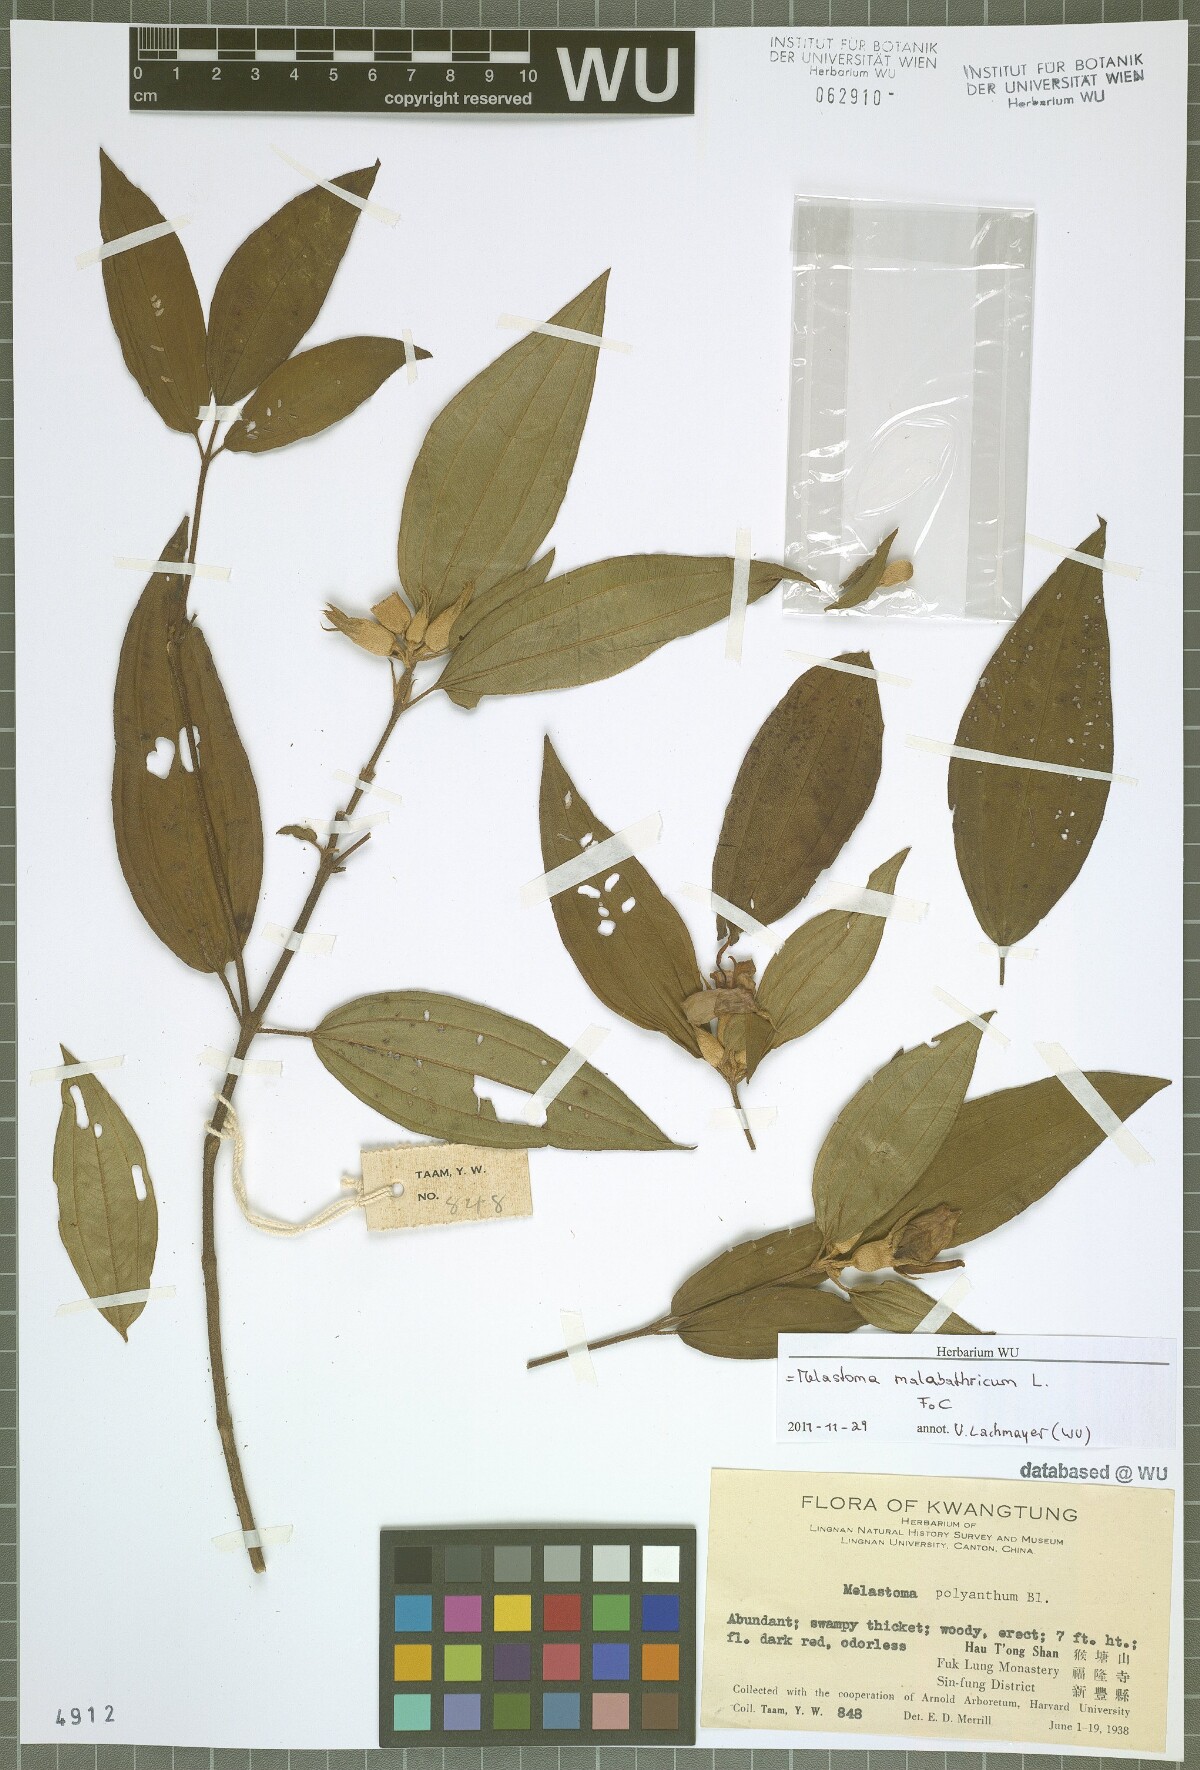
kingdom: Plantae
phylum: Tracheophyta
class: Magnoliopsida
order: Myrtales
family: Melastomataceae
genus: Melastoma
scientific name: Melastoma malabathricum
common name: Indian-rhododendron
